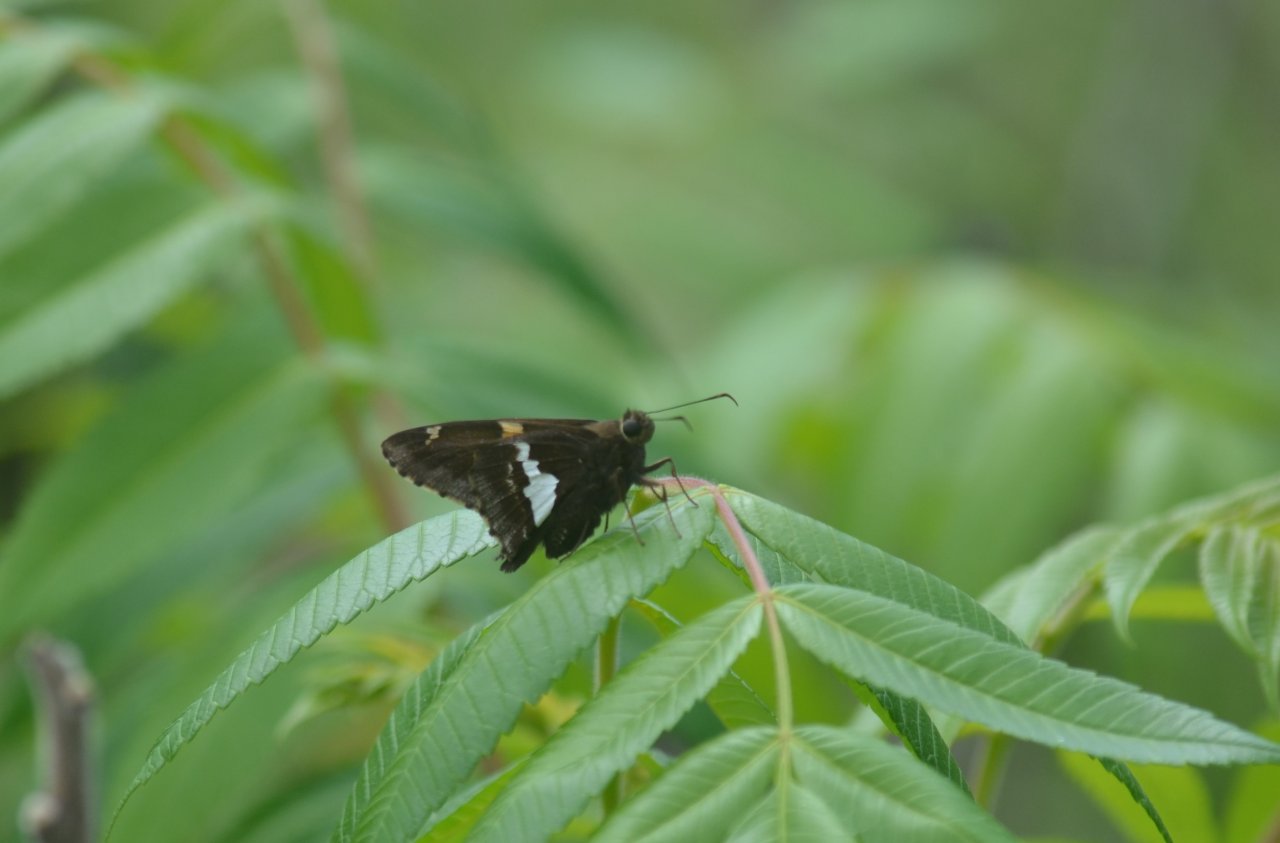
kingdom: Animalia
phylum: Arthropoda
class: Insecta
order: Lepidoptera
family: Hesperiidae
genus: Epargyreus
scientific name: Epargyreus clarus
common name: Silver-spotted Skipper
